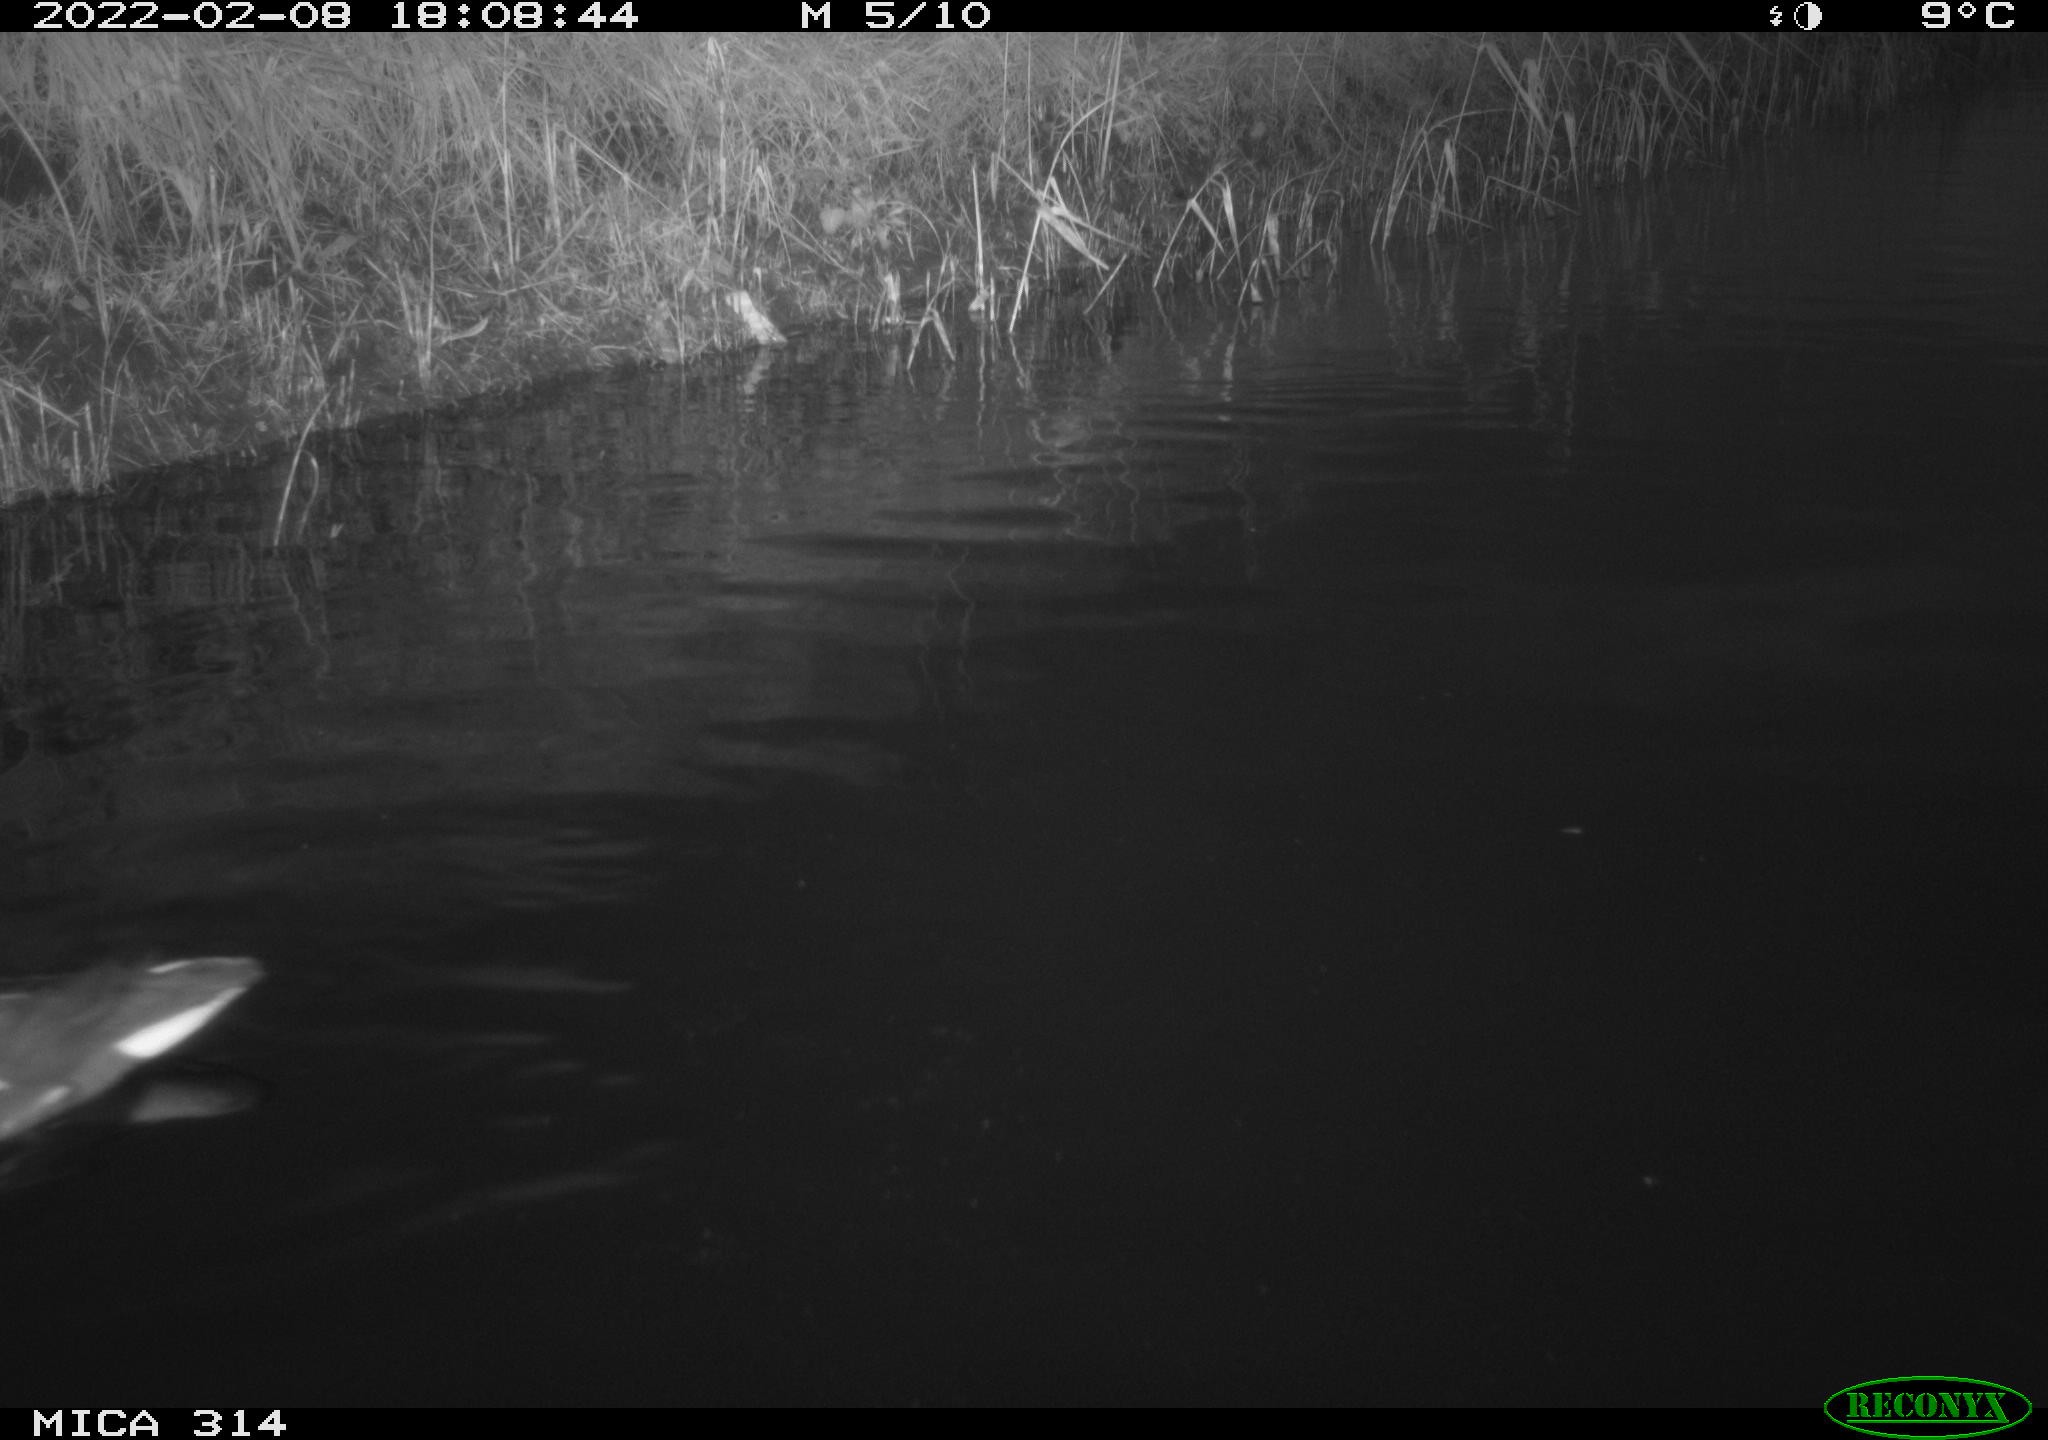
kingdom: Animalia
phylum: Chordata
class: Aves
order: Gruiformes
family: Rallidae
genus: Gallinula
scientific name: Gallinula chloropus
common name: Common moorhen
